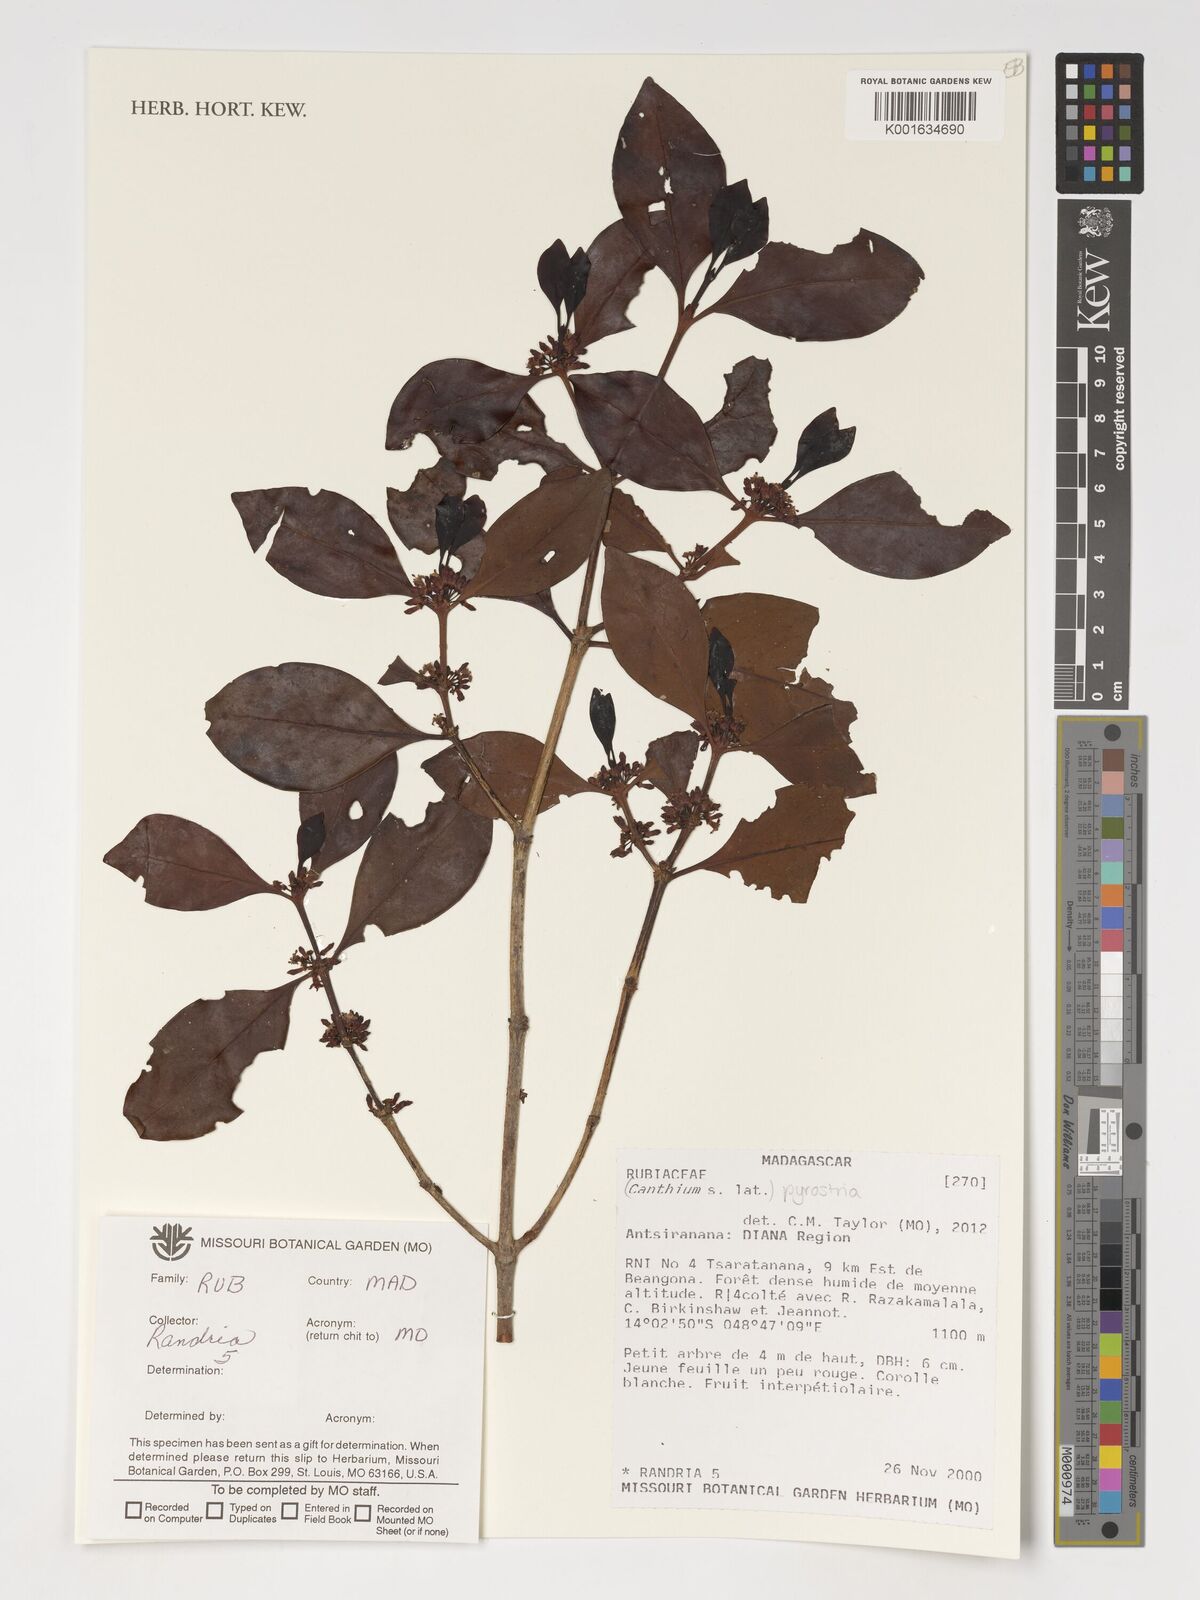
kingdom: Plantae
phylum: Tracheophyta
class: Magnoliopsida
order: Gentianales
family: Rubiaceae
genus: Pyrostria
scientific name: Pyrostria
